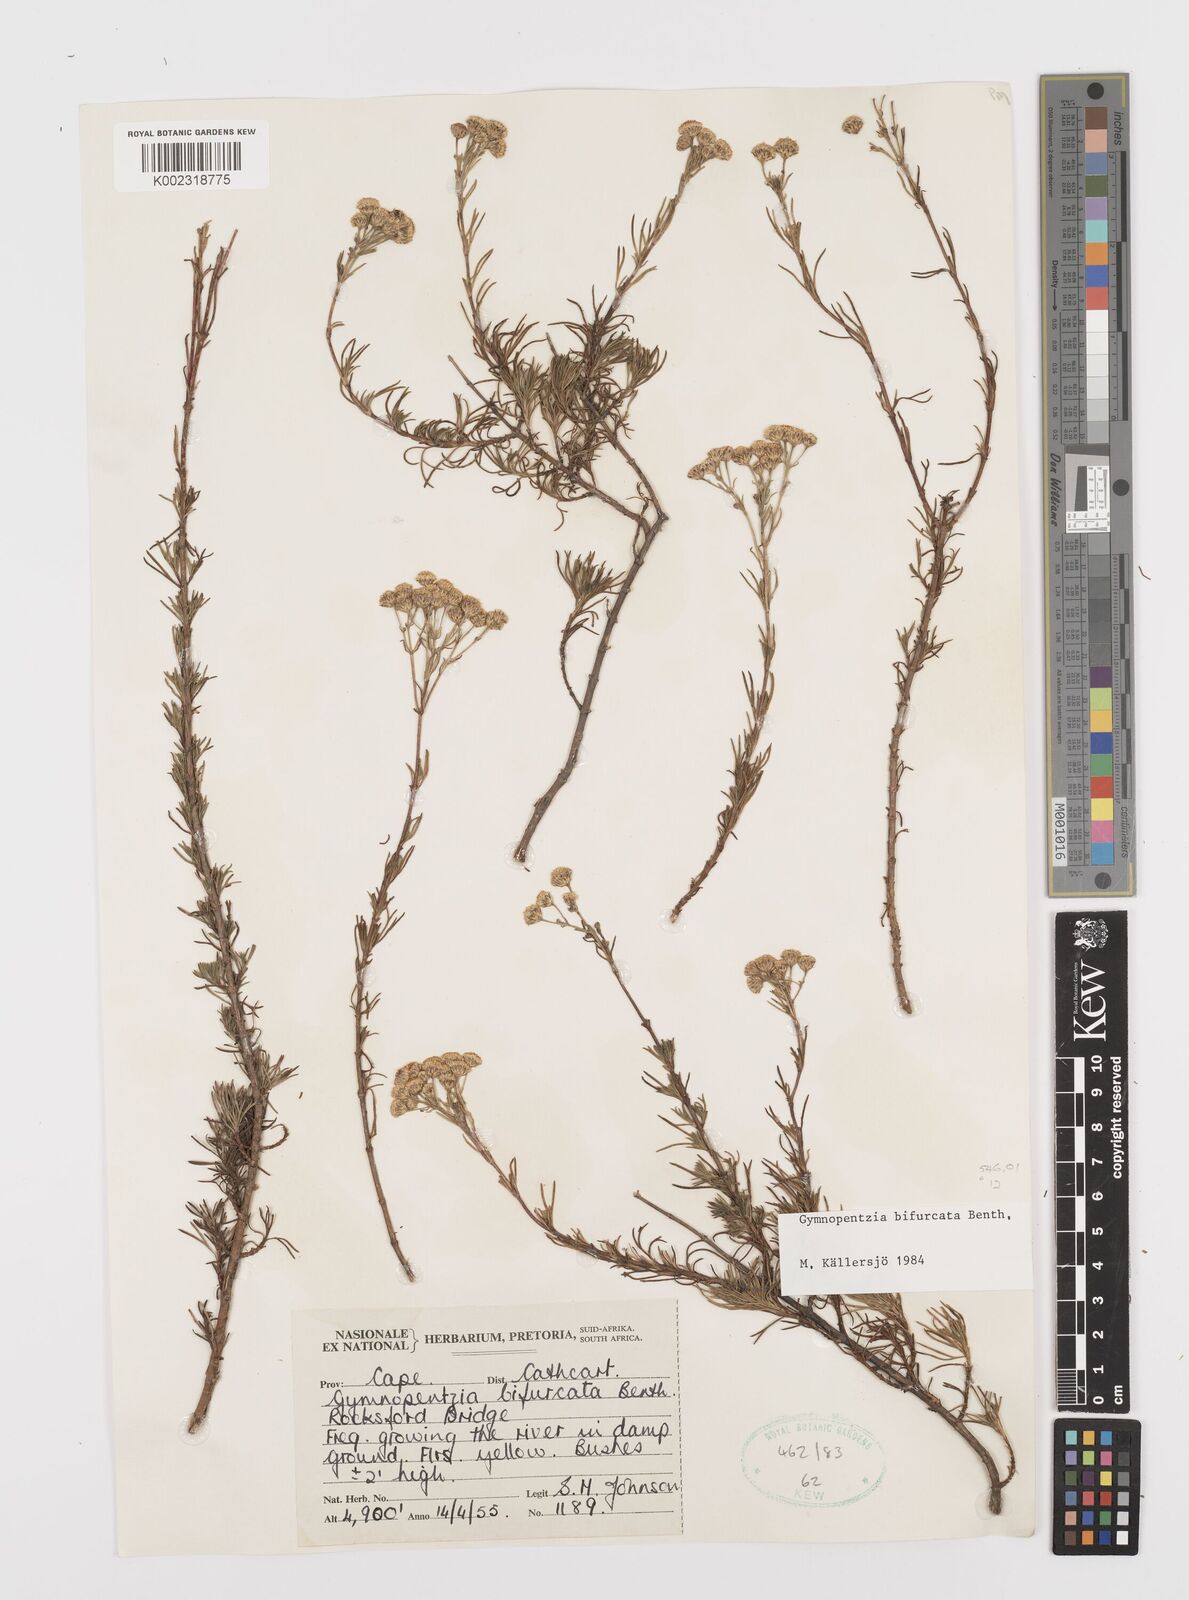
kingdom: Plantae
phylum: Tracheophyta
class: Magnoliopsida
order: Asterales
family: Asteraceae
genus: Gymnopentzia
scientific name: Gymnopentzia bifurcata
